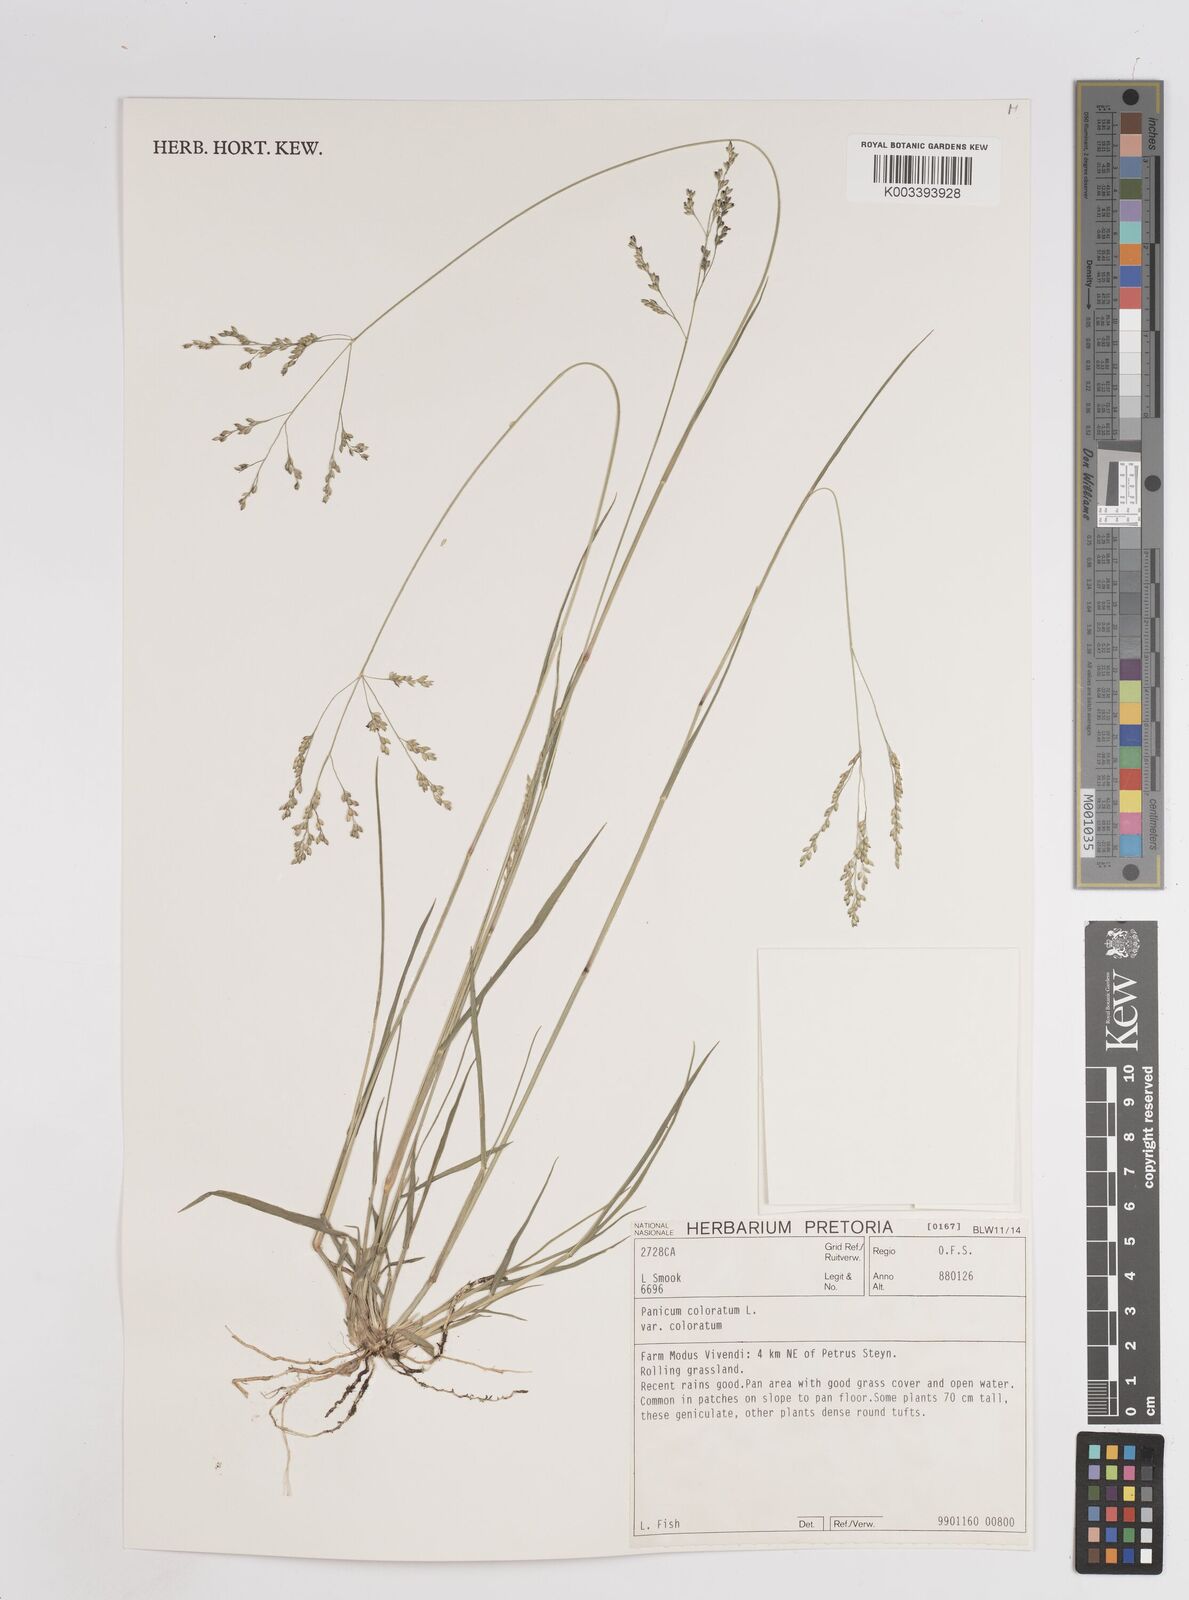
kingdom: Plantae
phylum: Tracheophyta
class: Liliopsida
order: Poales
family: Poaceae
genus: Panicum
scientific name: Panicum coloratum
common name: Kleingrass
